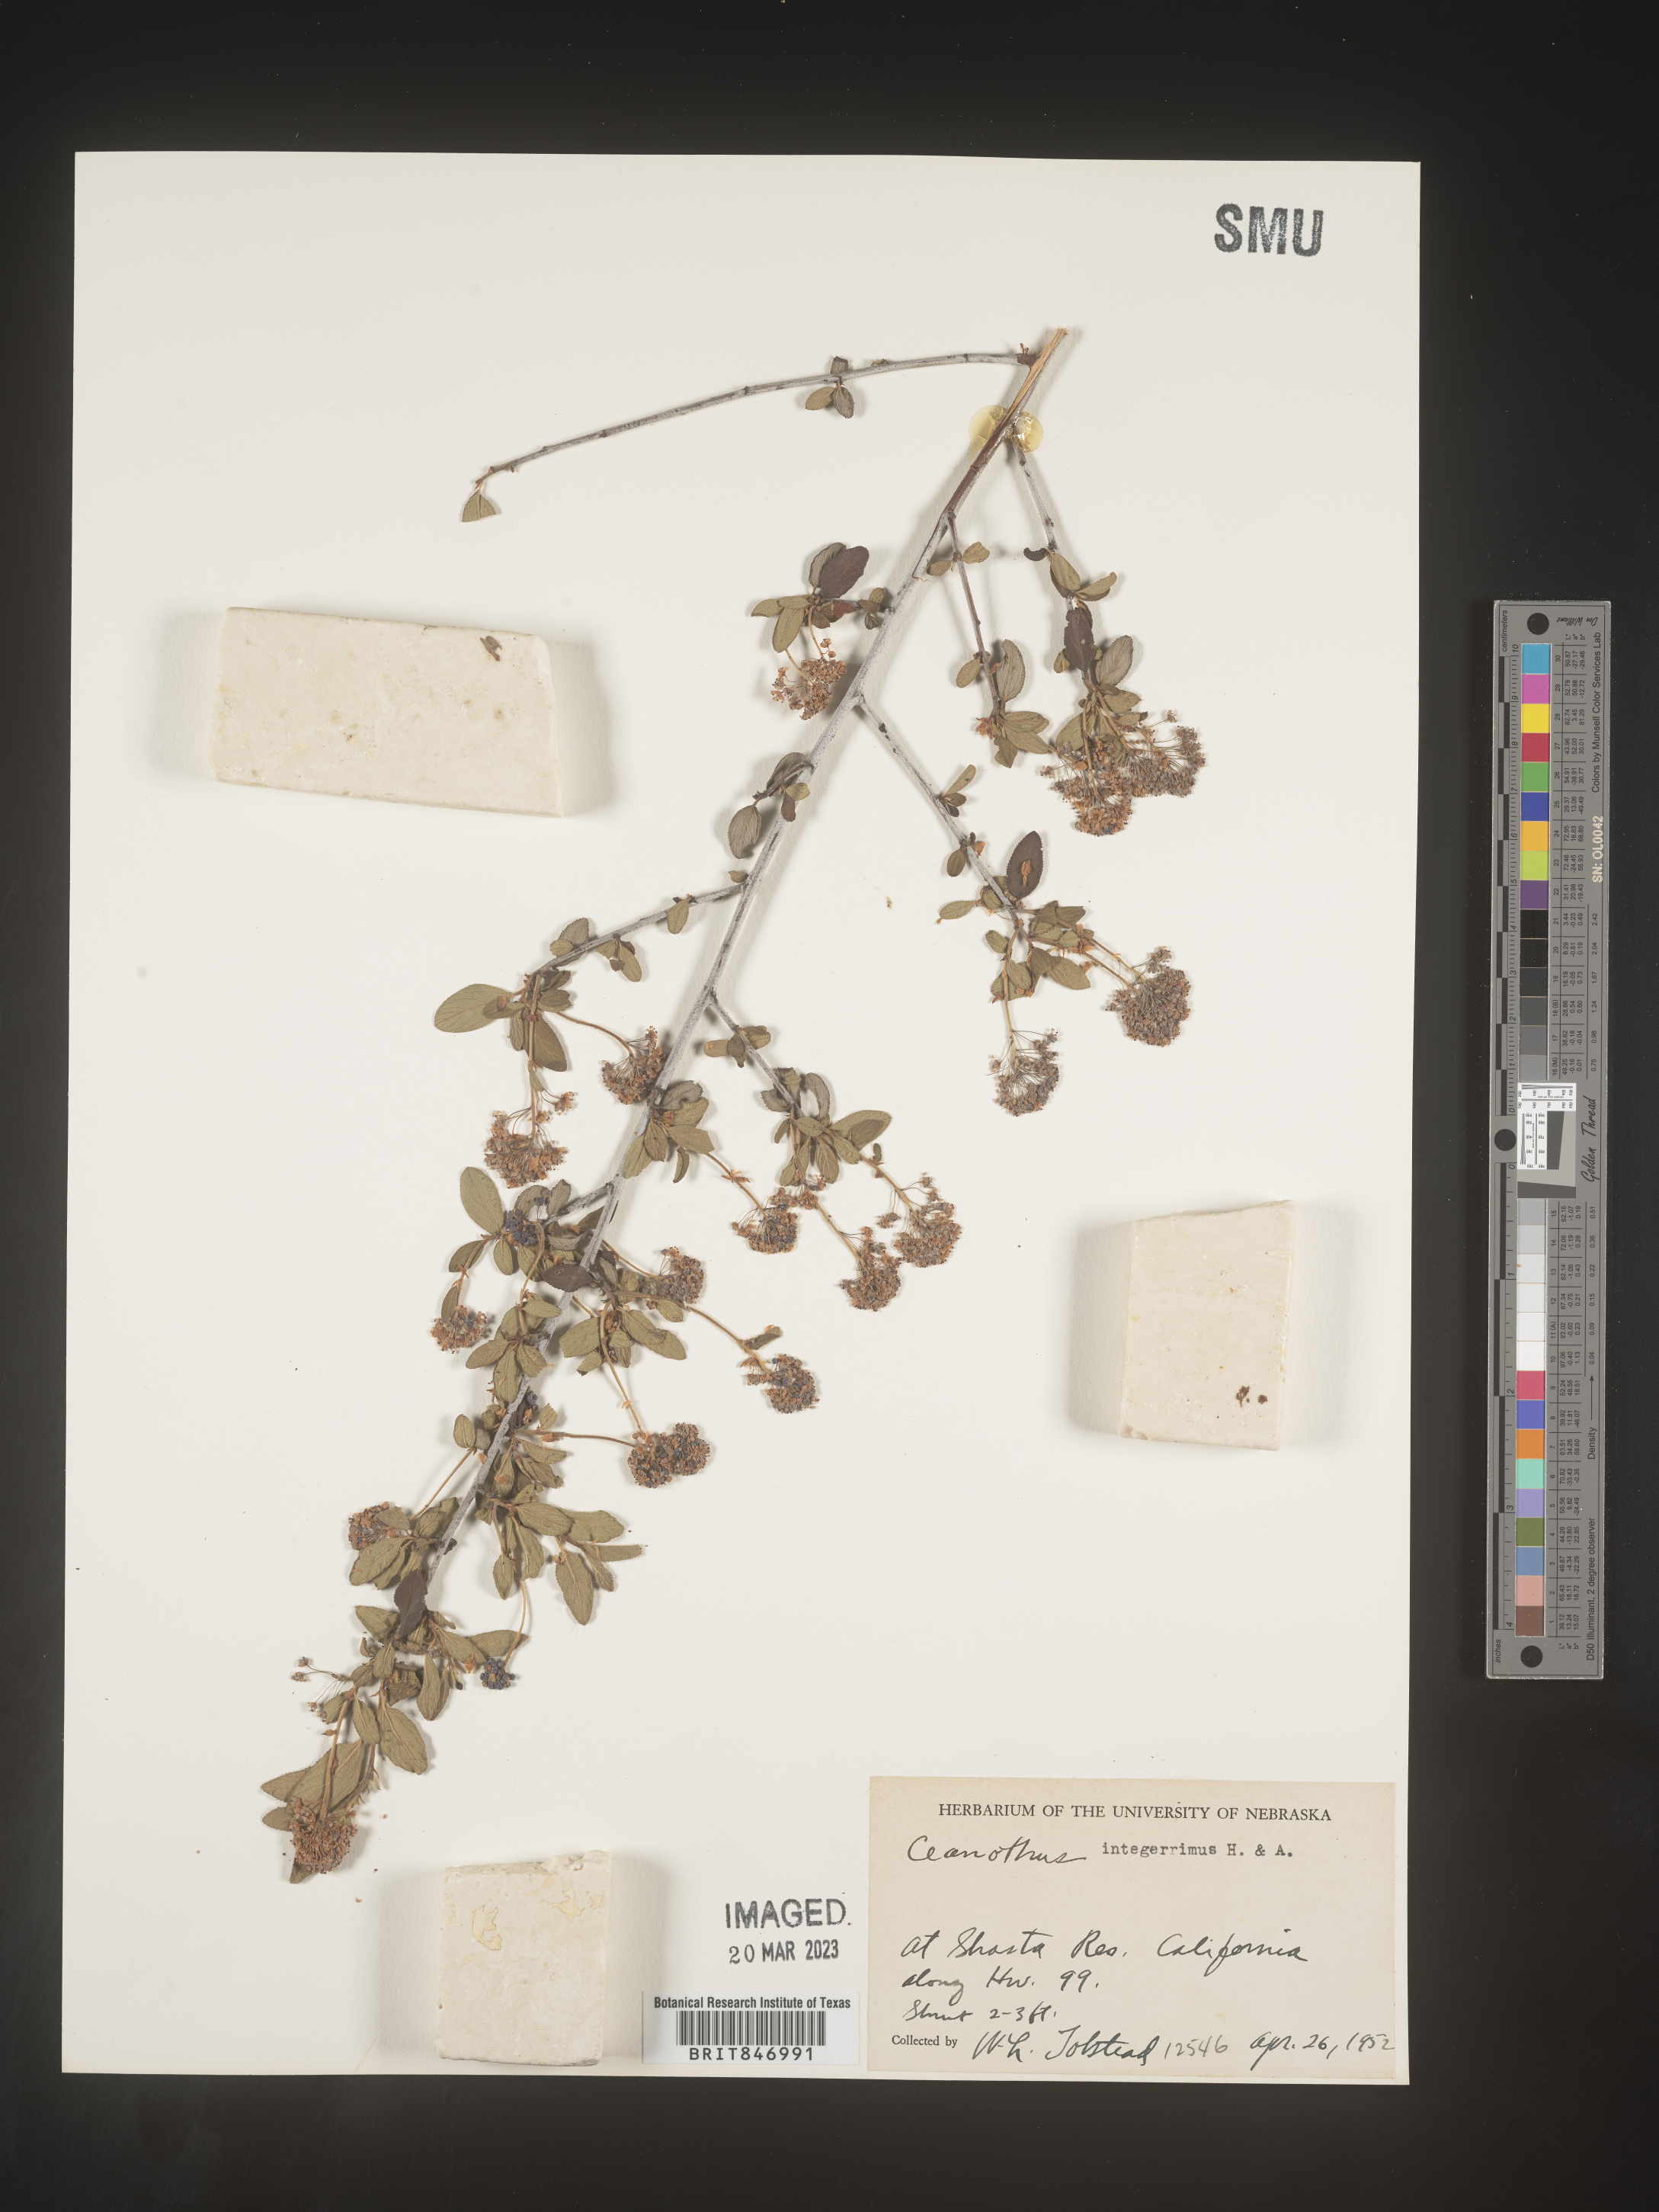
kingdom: Plantae
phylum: Tracheophyta
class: Magnoliopsida
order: Rosales
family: Rhamnaceae
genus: Ceanothus
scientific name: Ceanothus integerrimus
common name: Deerbrush ceanothus
